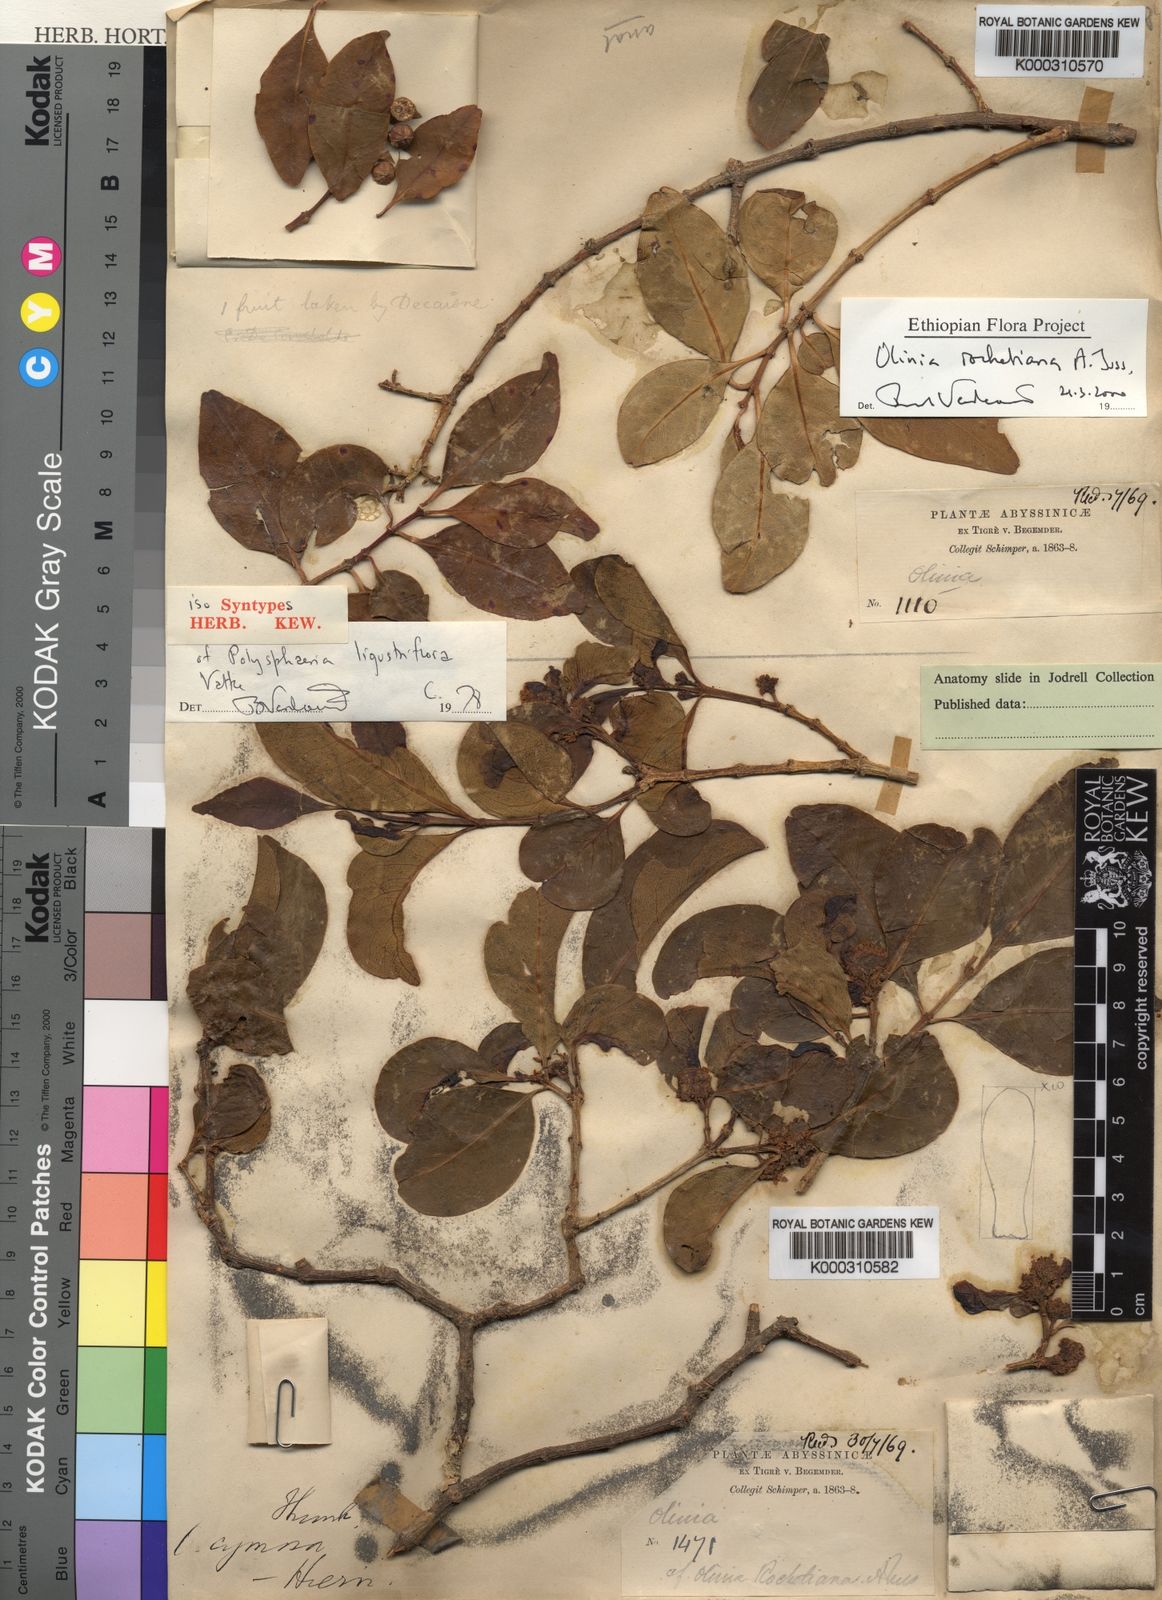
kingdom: Plantae
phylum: Tracheophyta
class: Magnoliopsida
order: Myrtales
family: Penaeaceae
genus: Olinia
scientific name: Olinia
